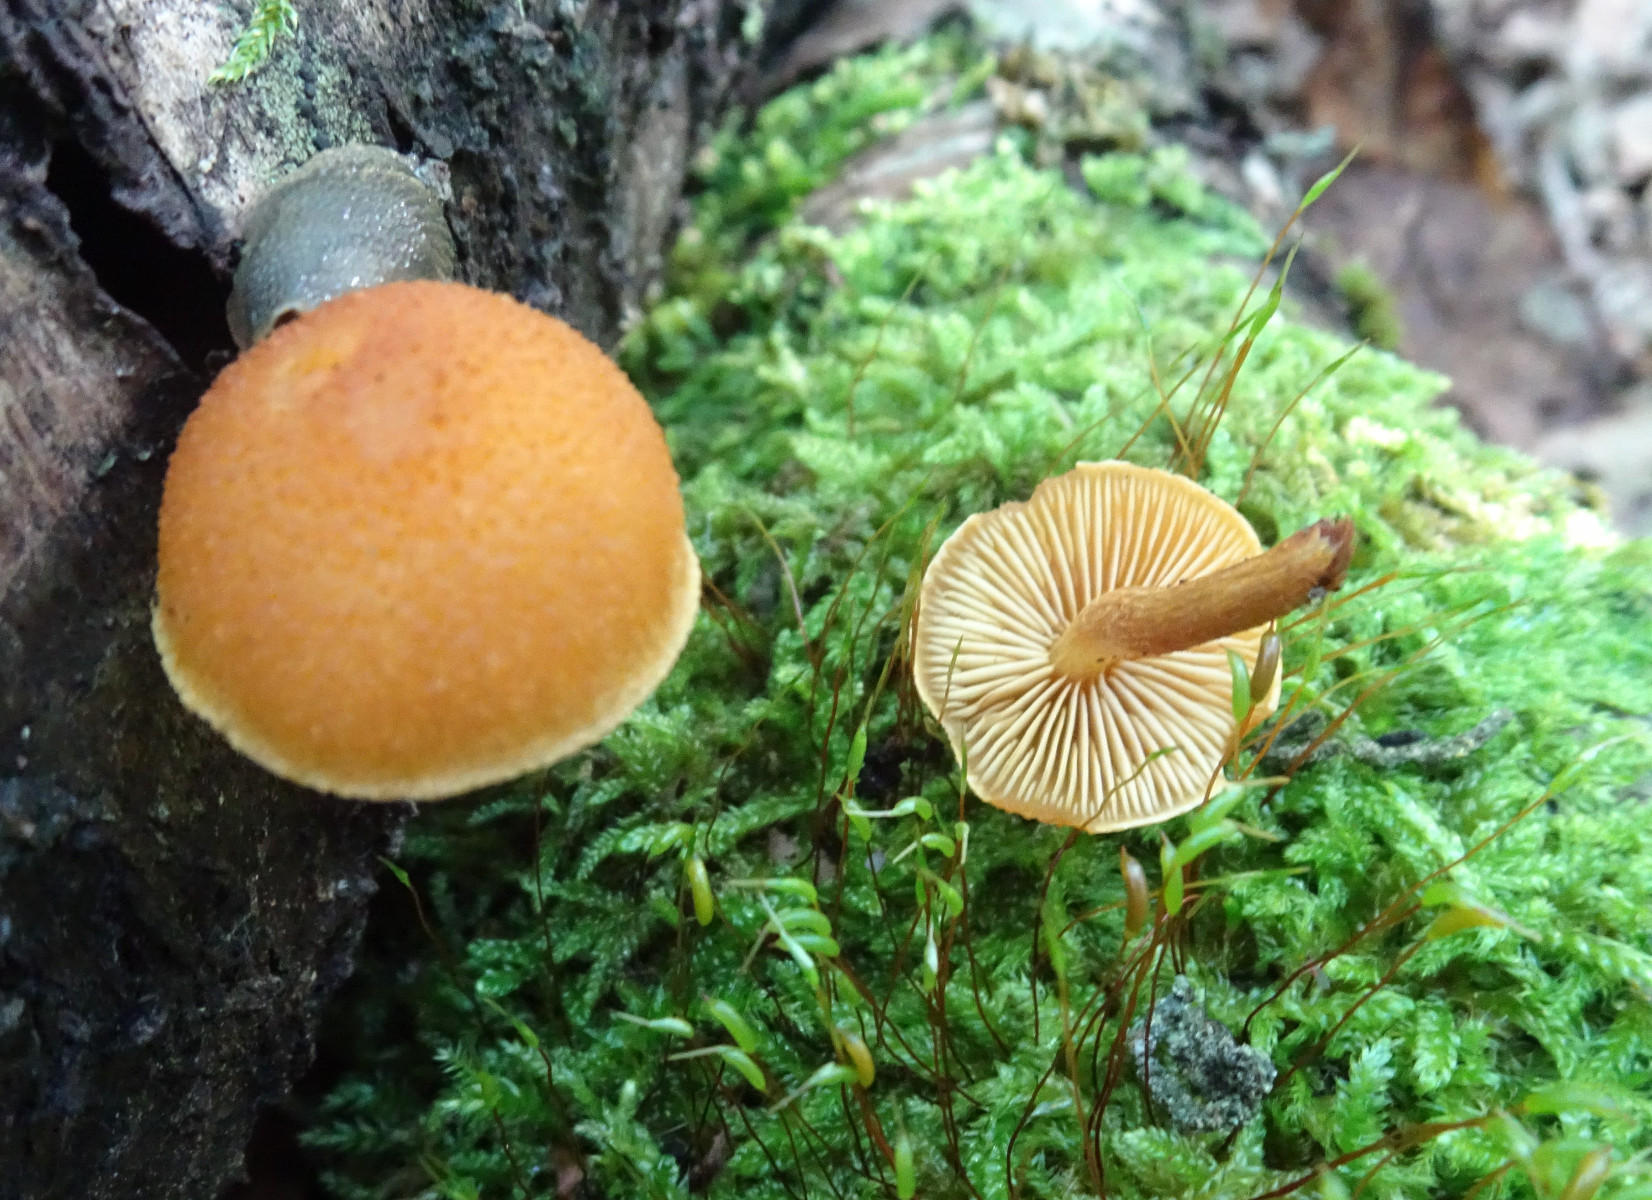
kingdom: Fungi
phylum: Basidiomycota
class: Agaricomycetes
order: Agaricales
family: Strophariaceae
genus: Pholiota
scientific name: Pholiota tuberculosa
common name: finskællet skælhat
